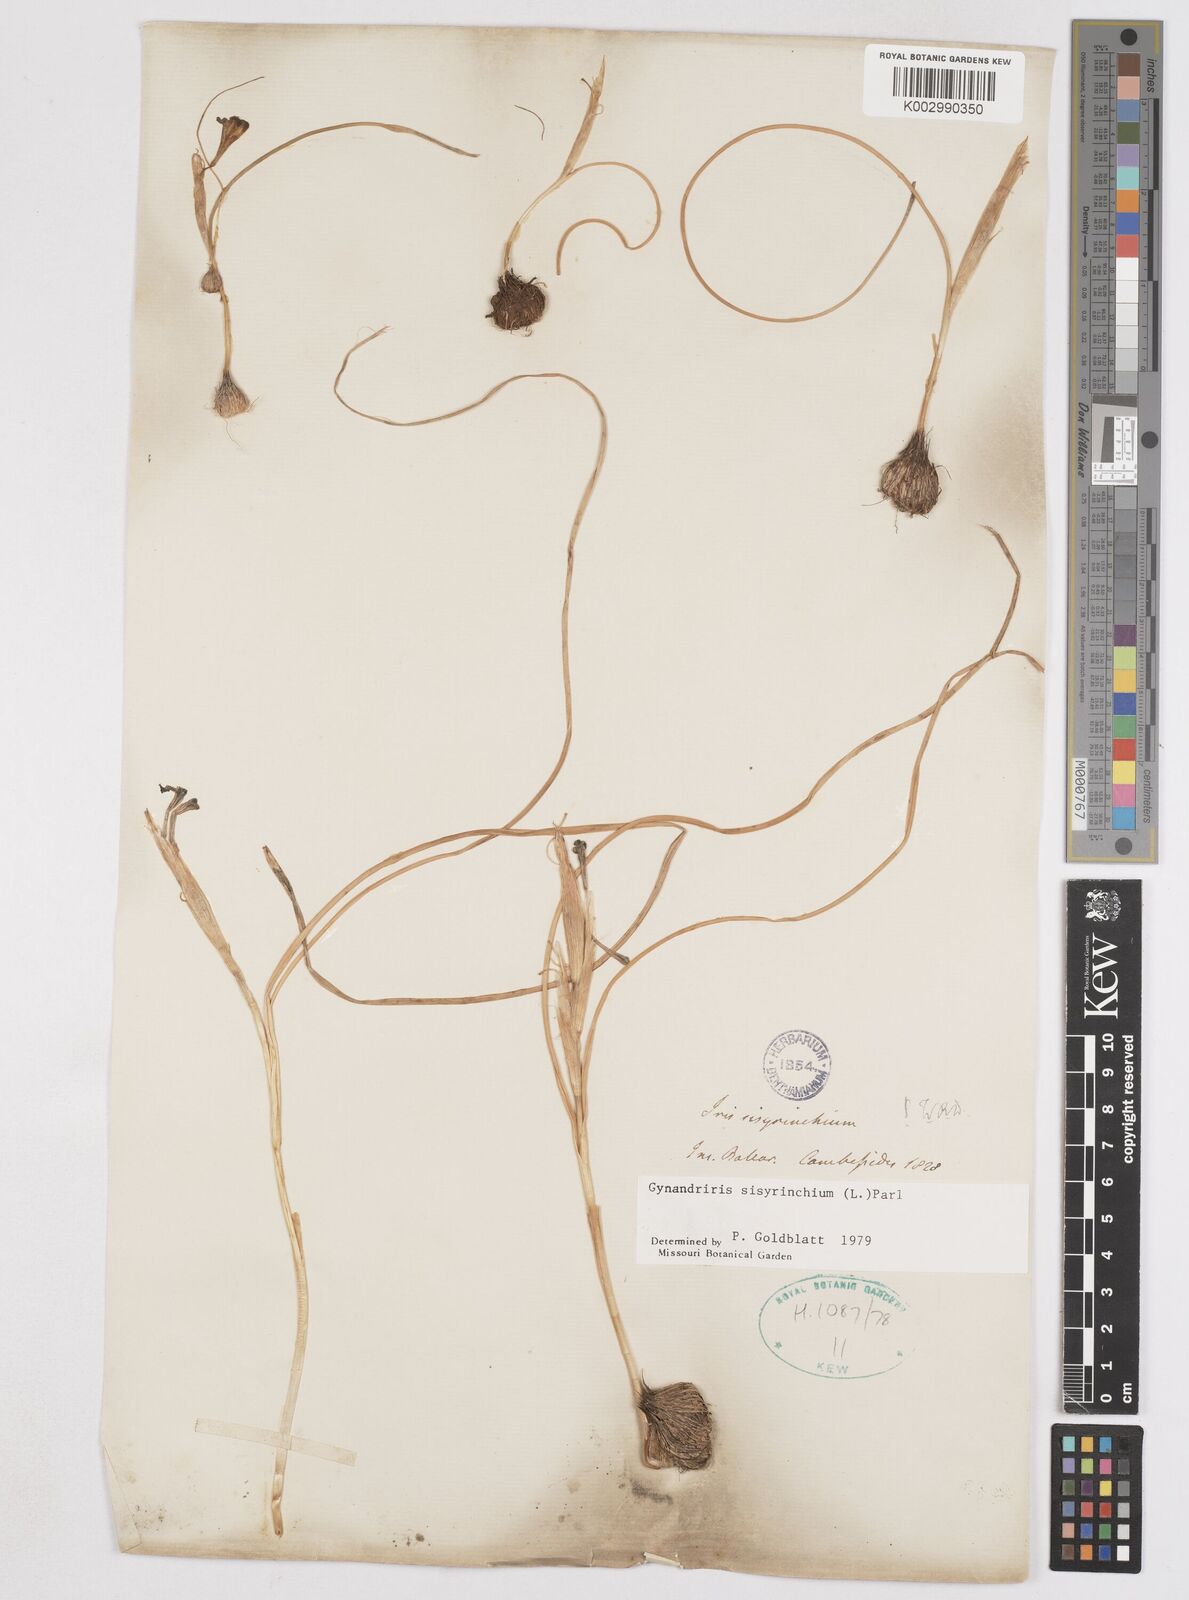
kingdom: Plantae
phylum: Tracheophyta
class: Liliopsida
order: Asparagales
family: Iridaceae
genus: Moraea
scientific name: Moraea sisyrinchium
